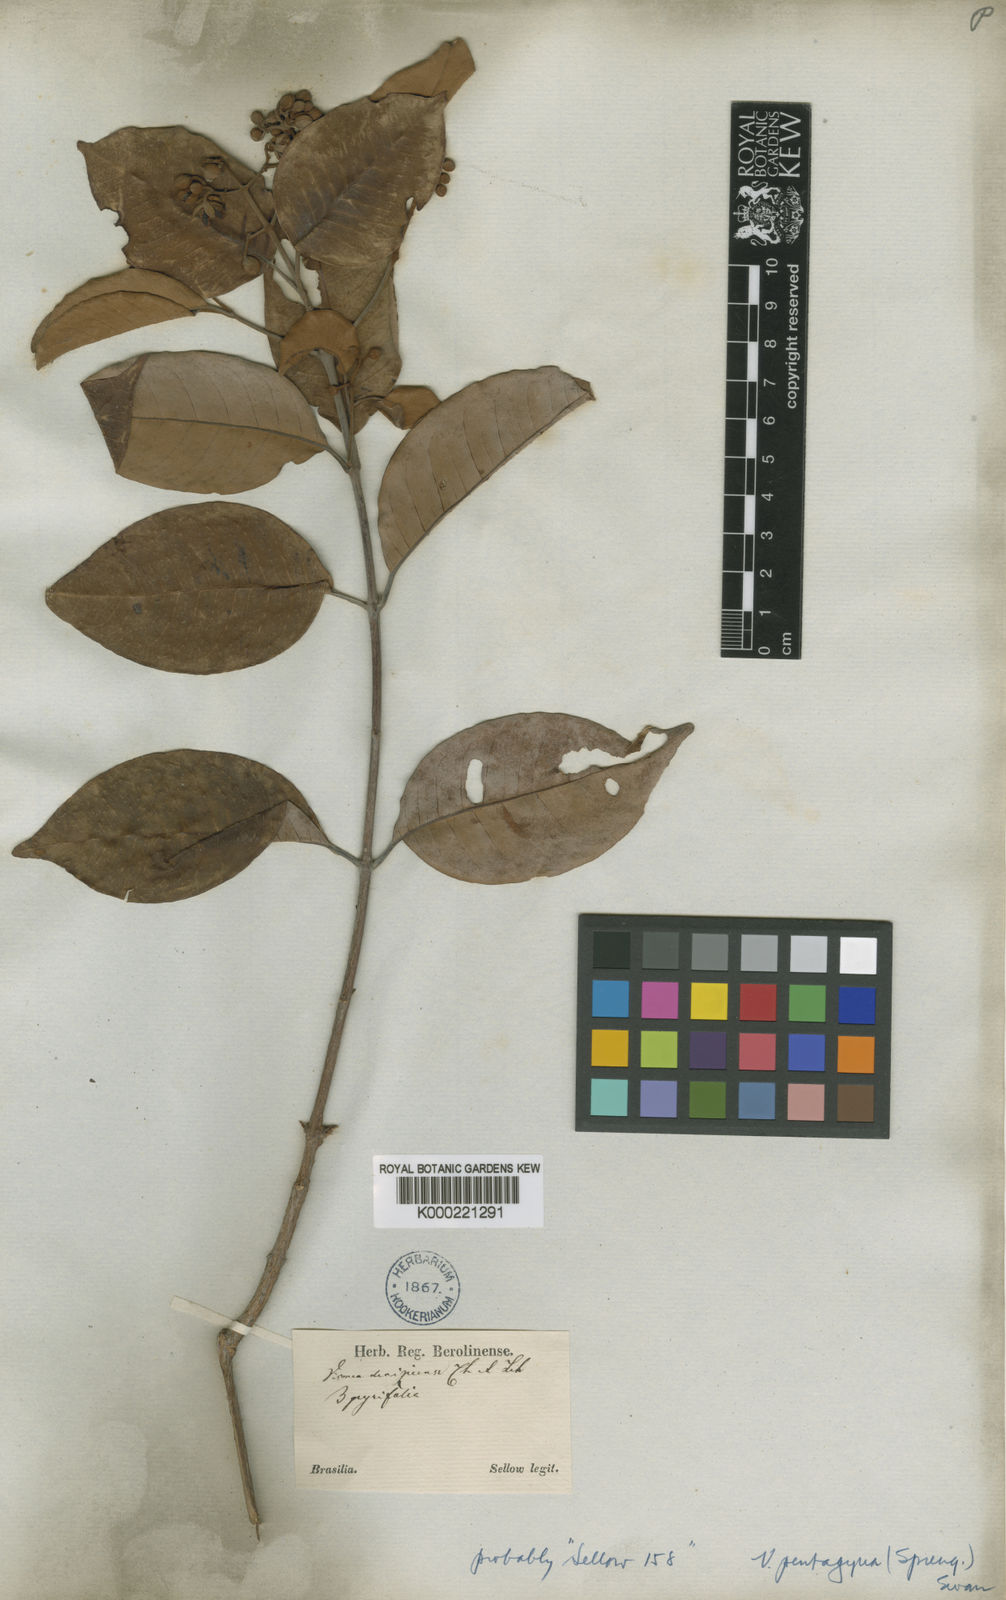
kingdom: Plantae
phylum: Tracheophyta
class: Magnoliopsida
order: Malpighiales
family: Hypericaceae
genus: Vismia
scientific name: Vismia pentagyna
